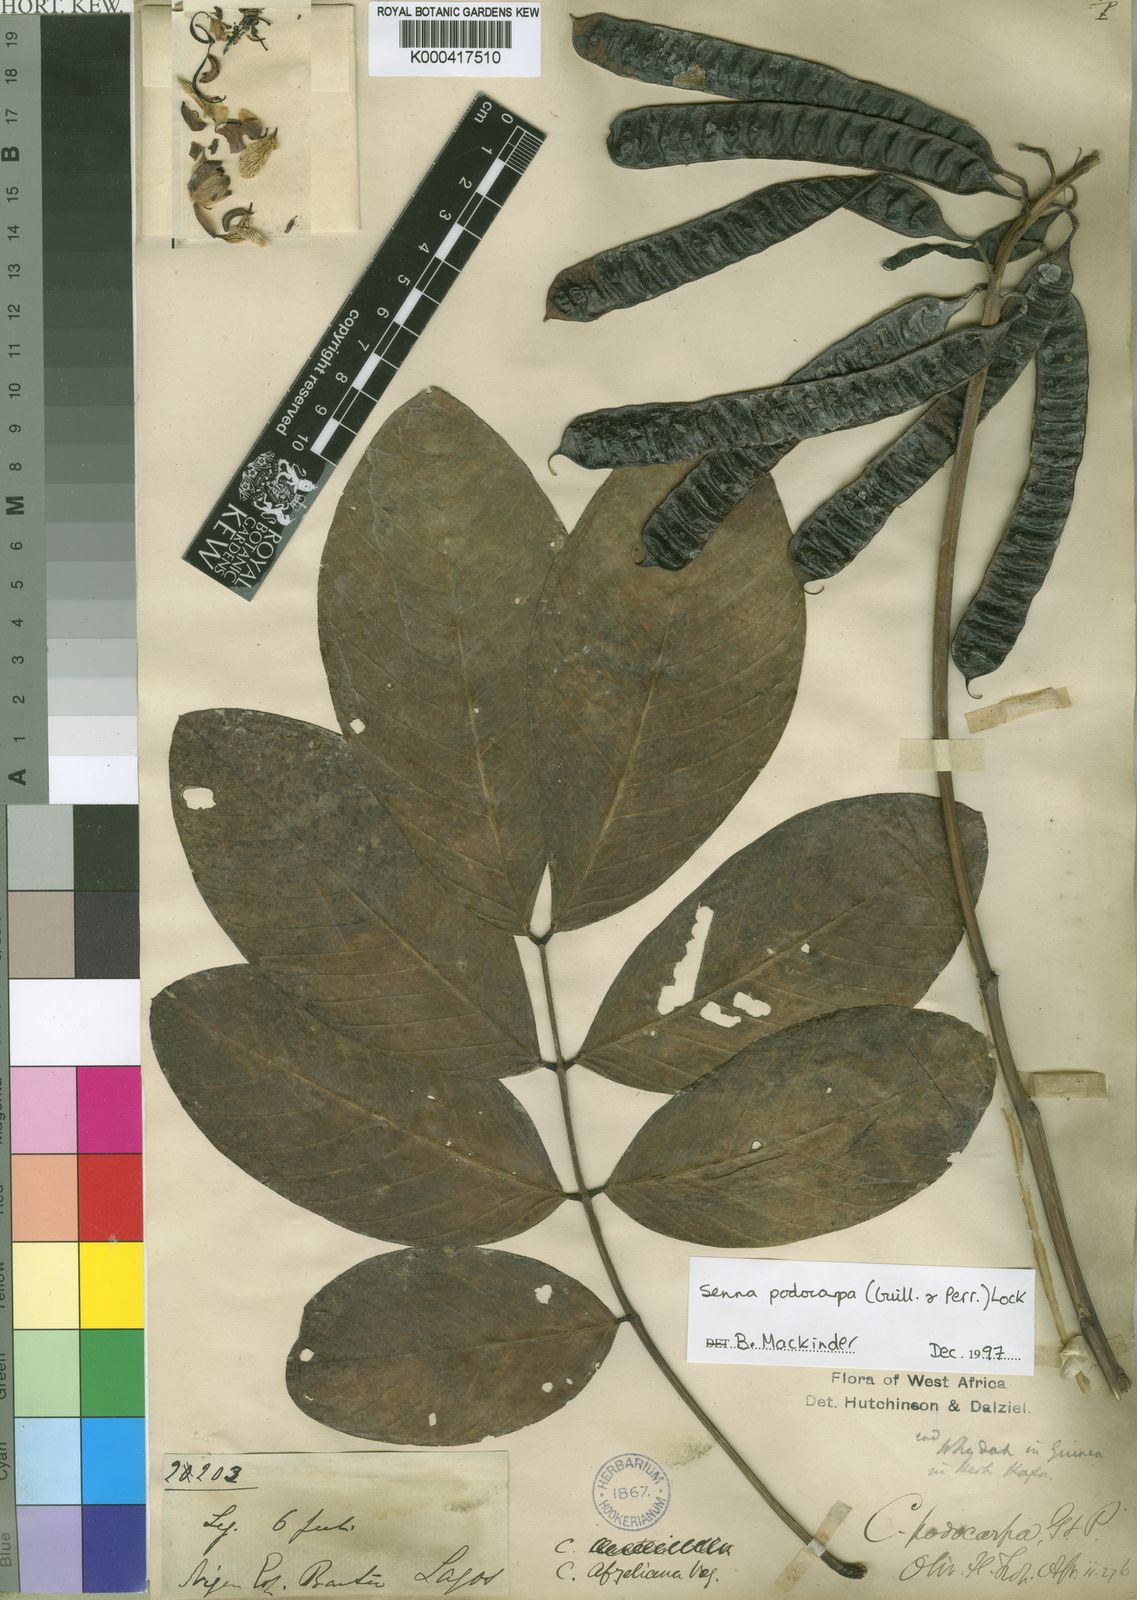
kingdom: Plantae
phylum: Tracheophyta
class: Magnoliopsida
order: Fabales
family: Fabaceae
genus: Senna
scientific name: Senna podocarpa
